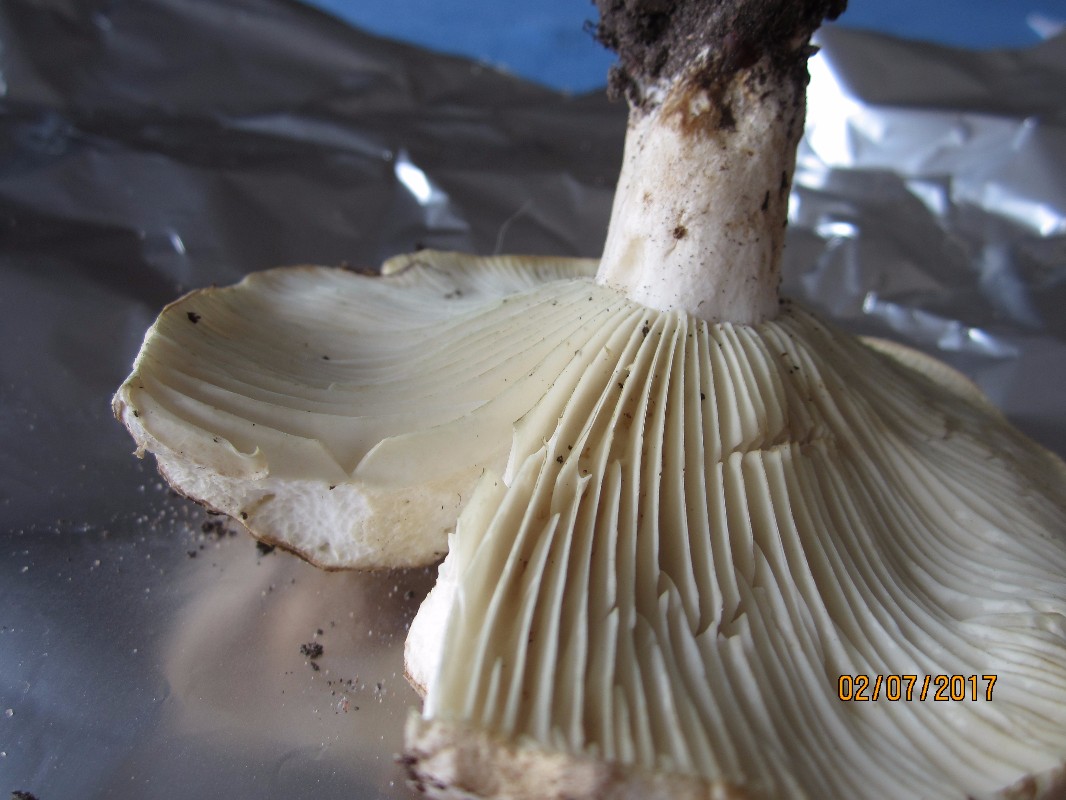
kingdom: Fungi
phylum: Basidiomycota
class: Agaricomycetes
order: Russulales
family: Russulaceae
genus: Russula
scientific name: Russula delica
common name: almindelig tragt-skørhat
